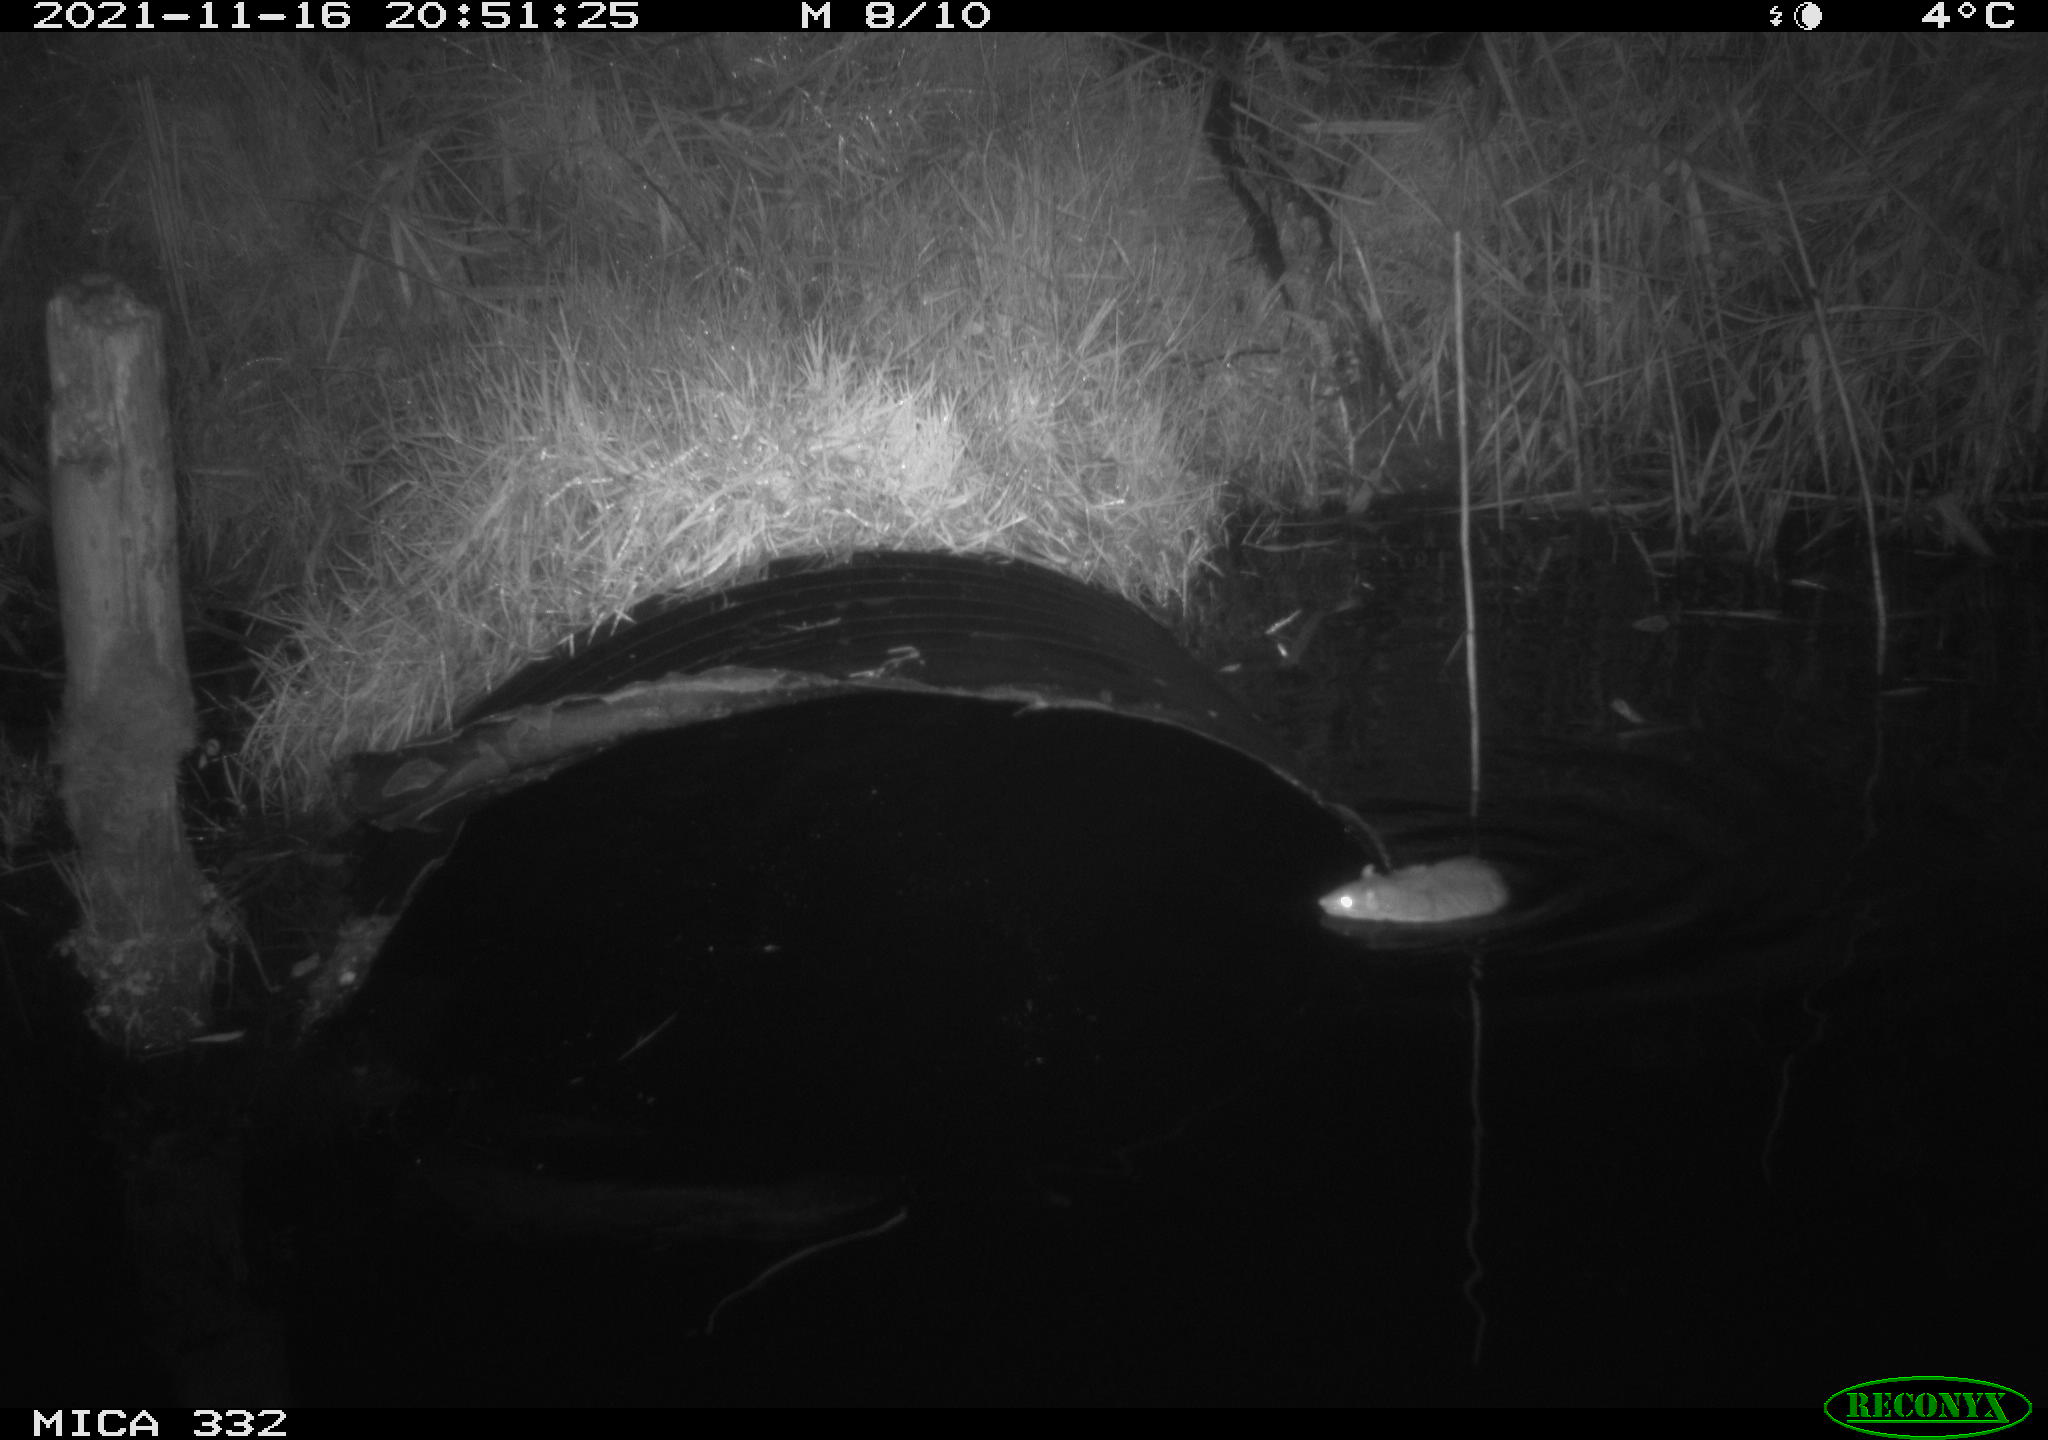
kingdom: Animalia
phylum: Chordata
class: Mammalia
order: Rodentia
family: Muridae
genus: Rattus
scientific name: Rattus norvegicus
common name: Brown rat
